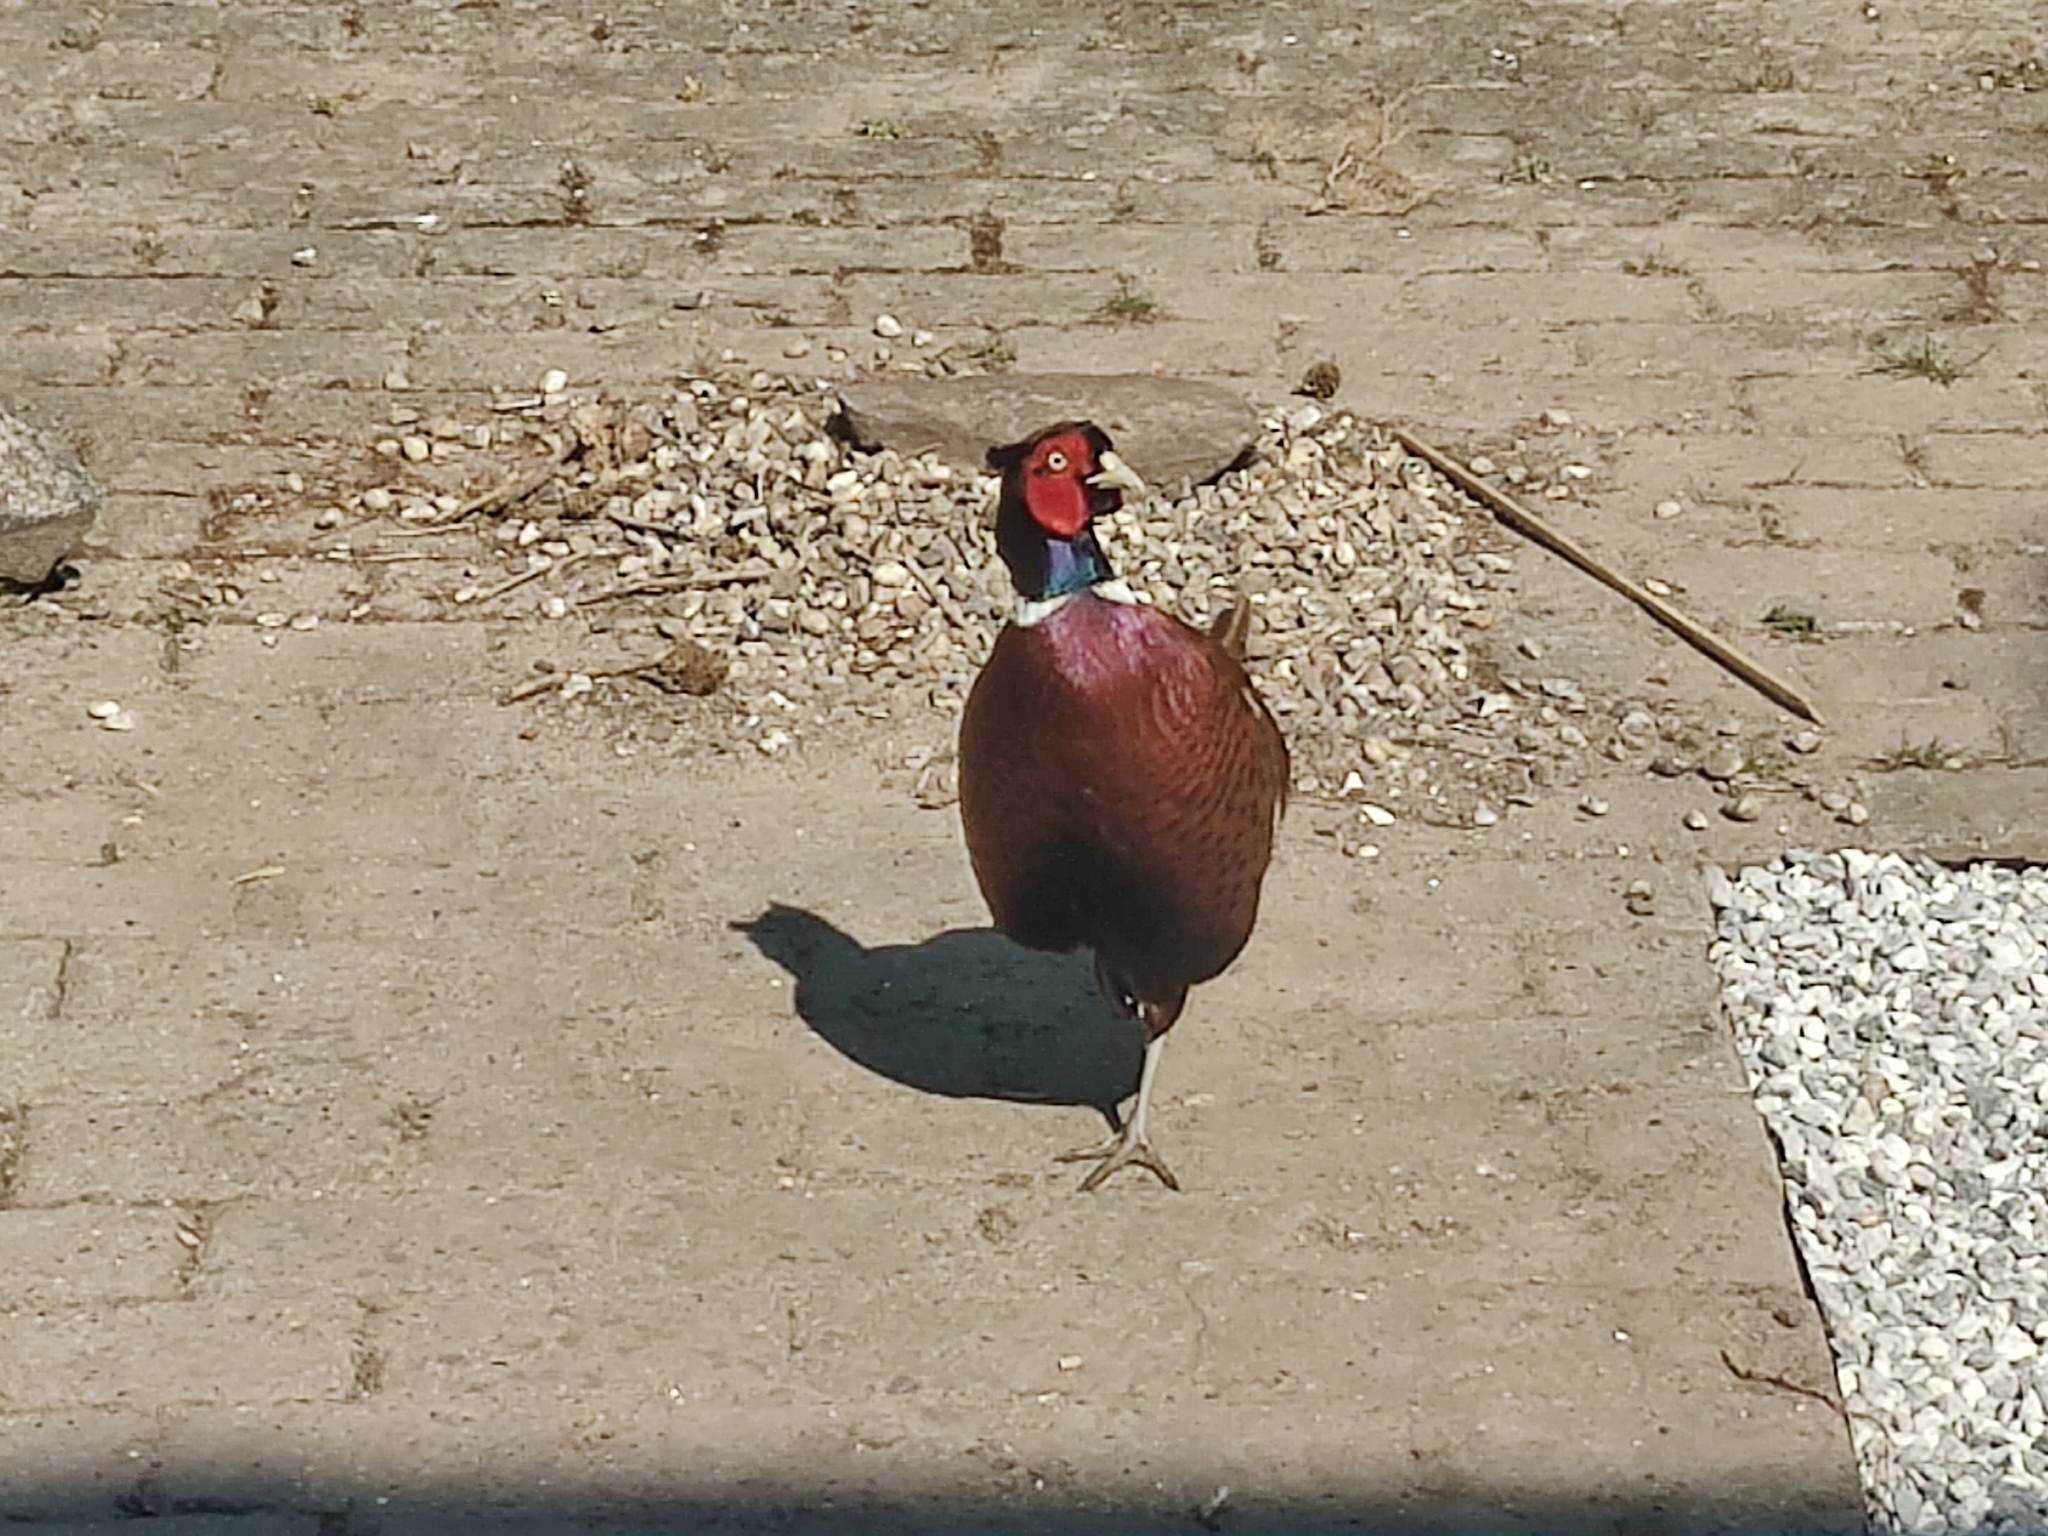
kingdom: Animalia
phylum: Chordata
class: Aves
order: Galliformes
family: Phasianidae
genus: Phasianus
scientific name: Phasianus colchicus
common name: Fasan
